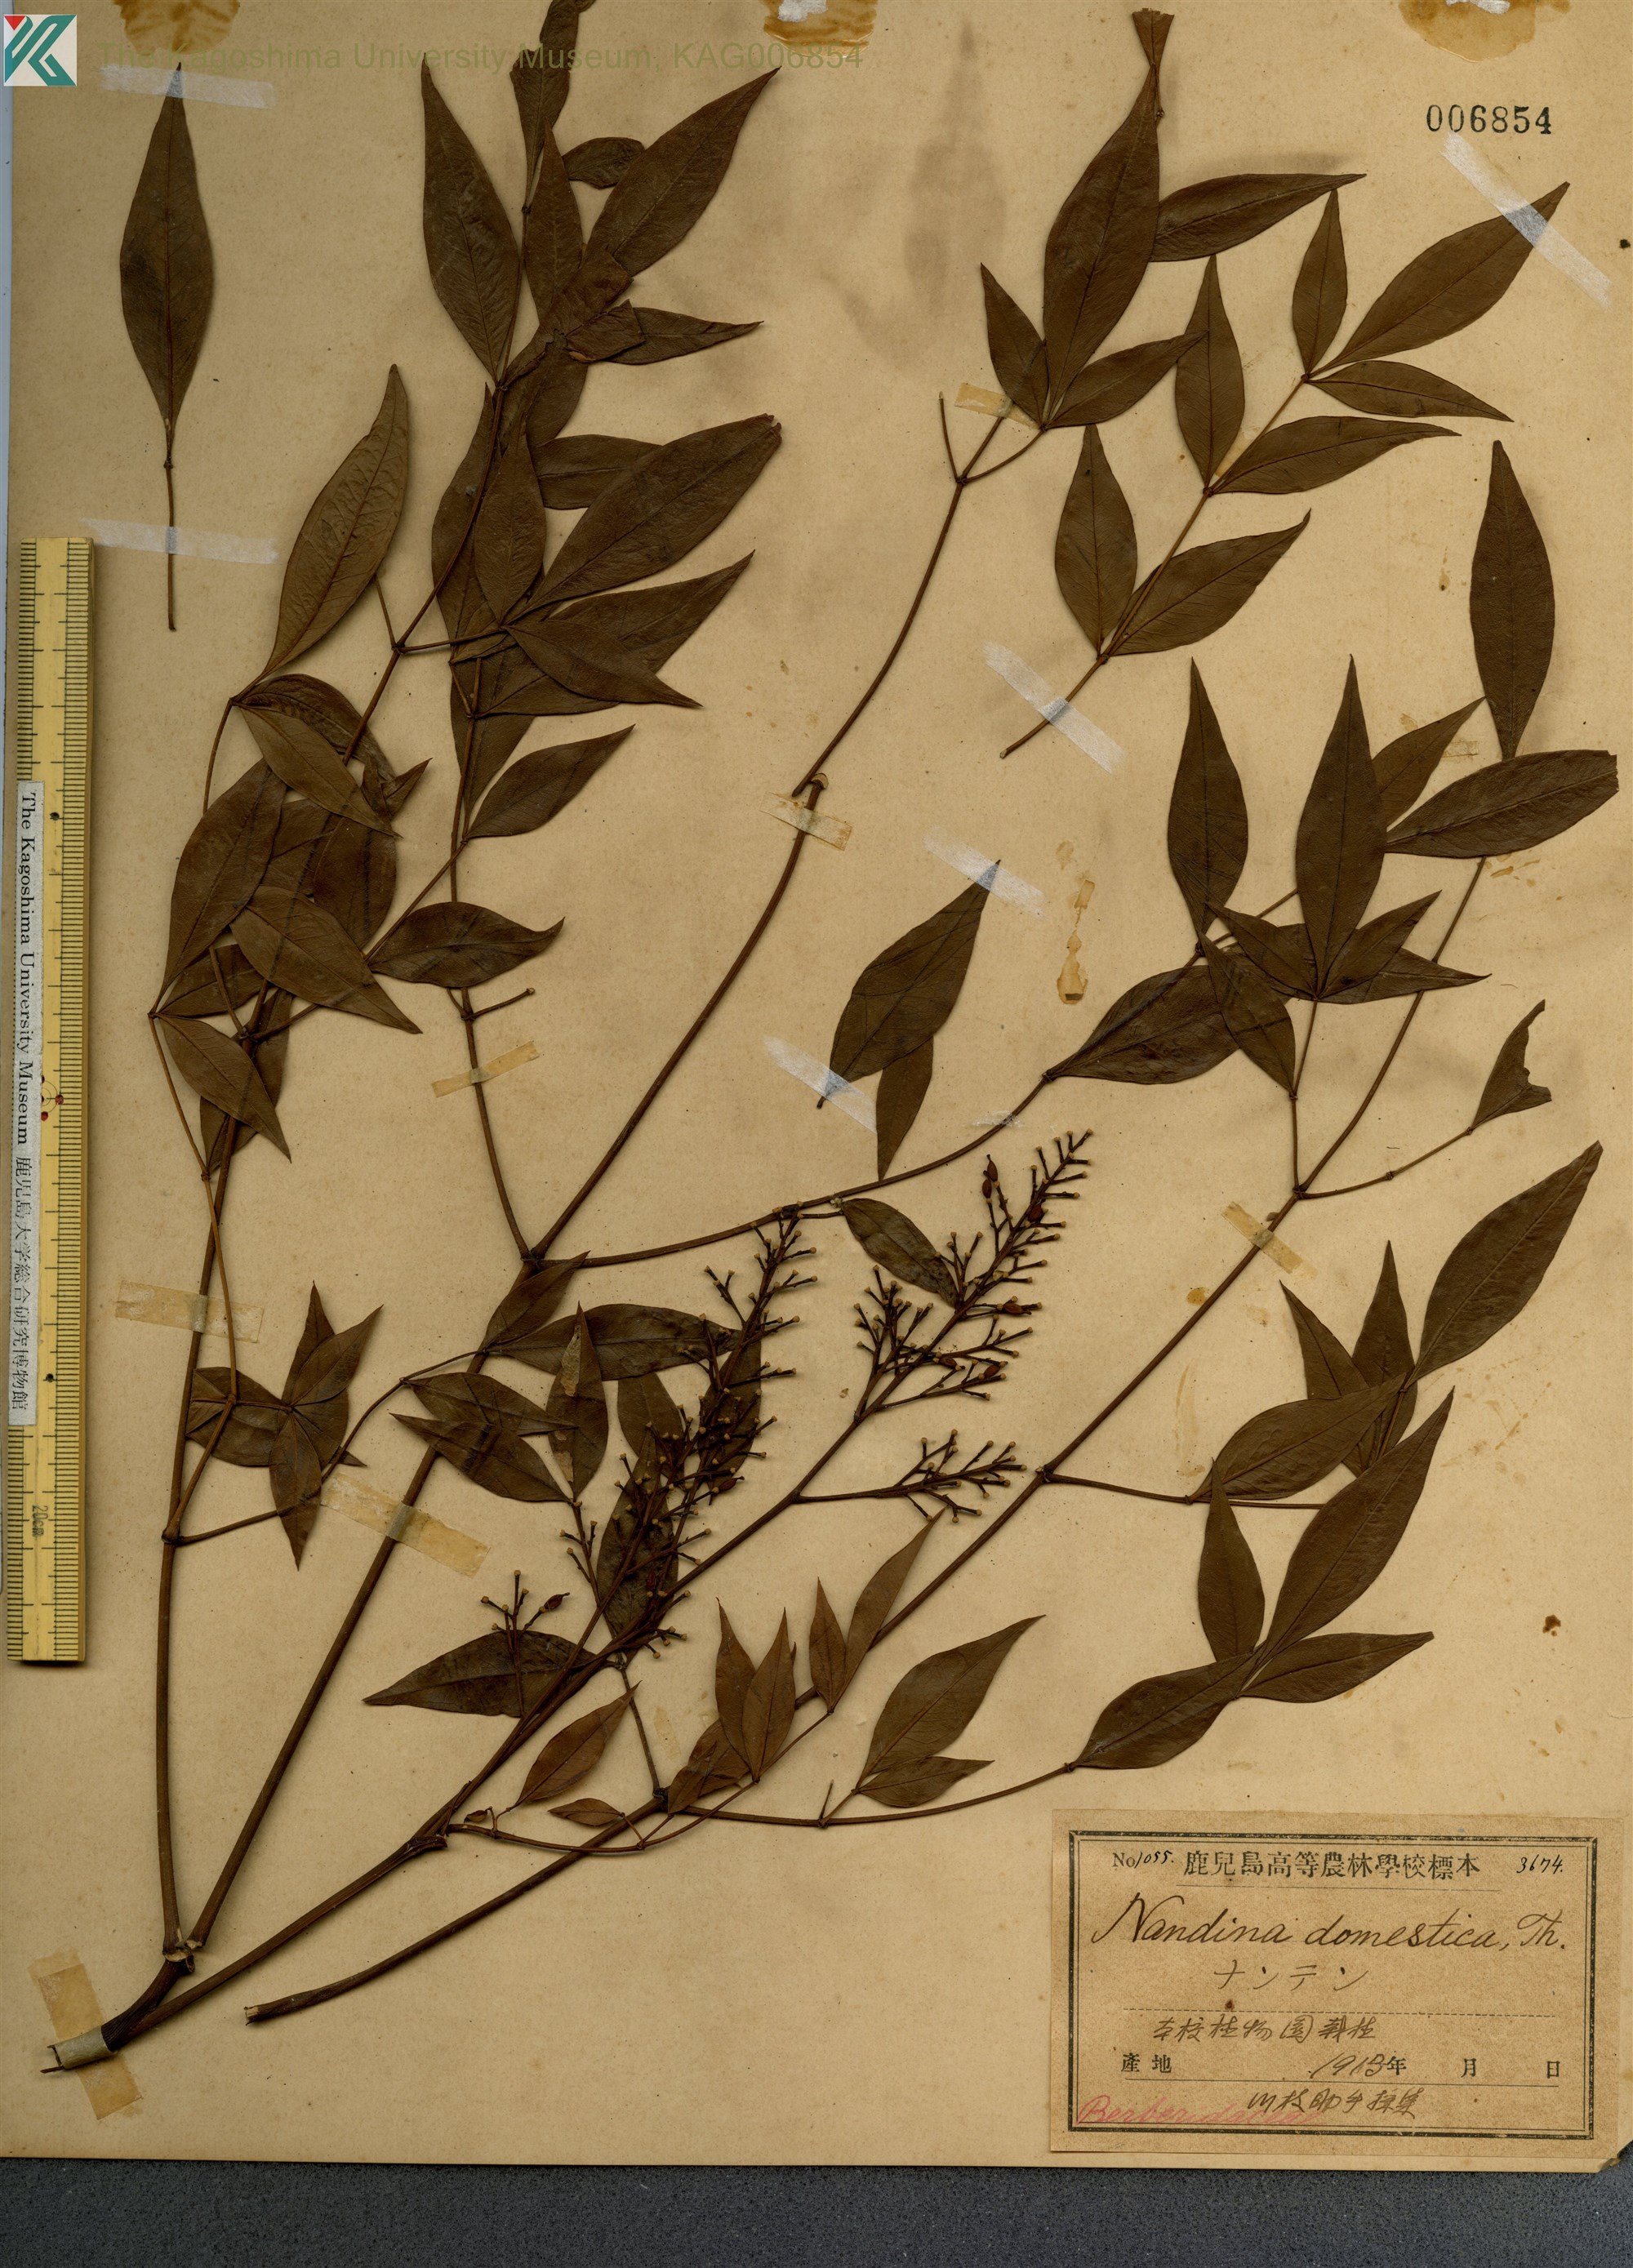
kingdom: Plantae
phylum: Tracheophyta
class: Magnoliopsida
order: Ranunculales
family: Berberidaceae
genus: Nandina
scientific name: Nandina domestica
